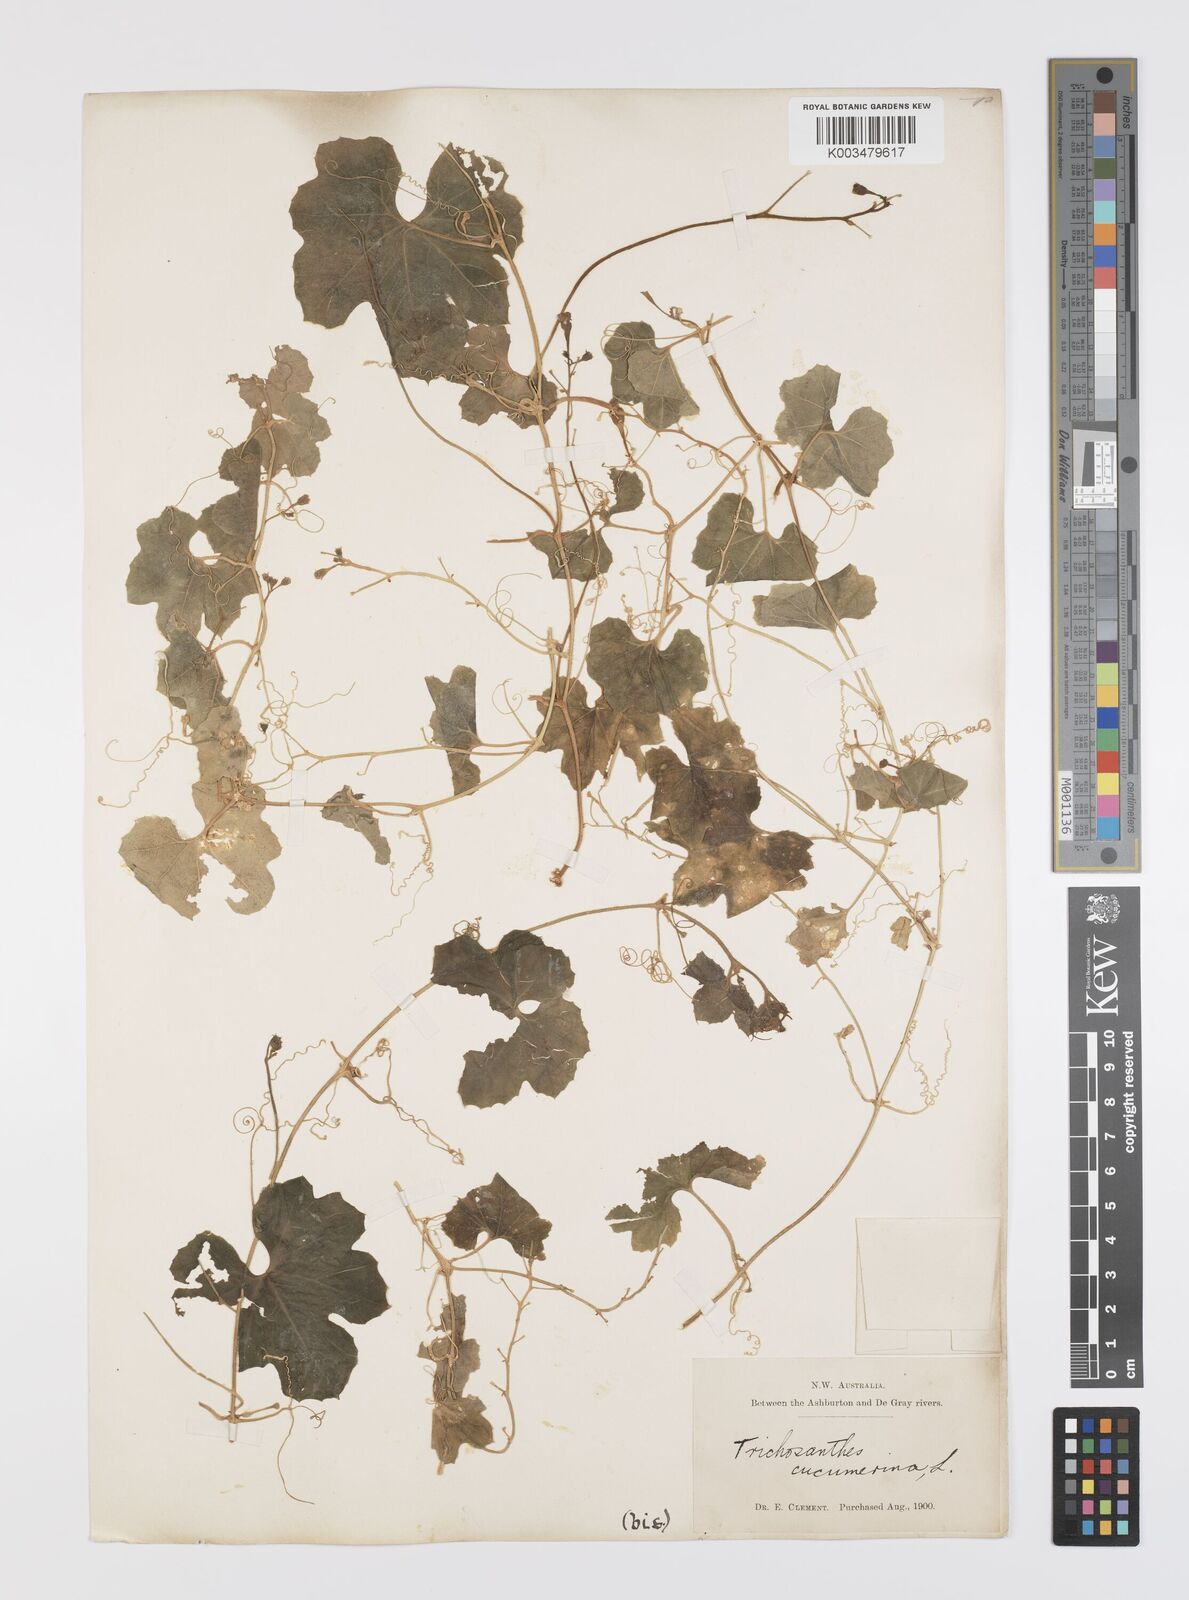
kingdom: Plantae
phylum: Tracheophyta
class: Magnoliopsida
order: Cucurbitales
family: Cucurbitaceae
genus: Trichosanthes
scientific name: Trichosanthes cucumerina
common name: Snakegourd
